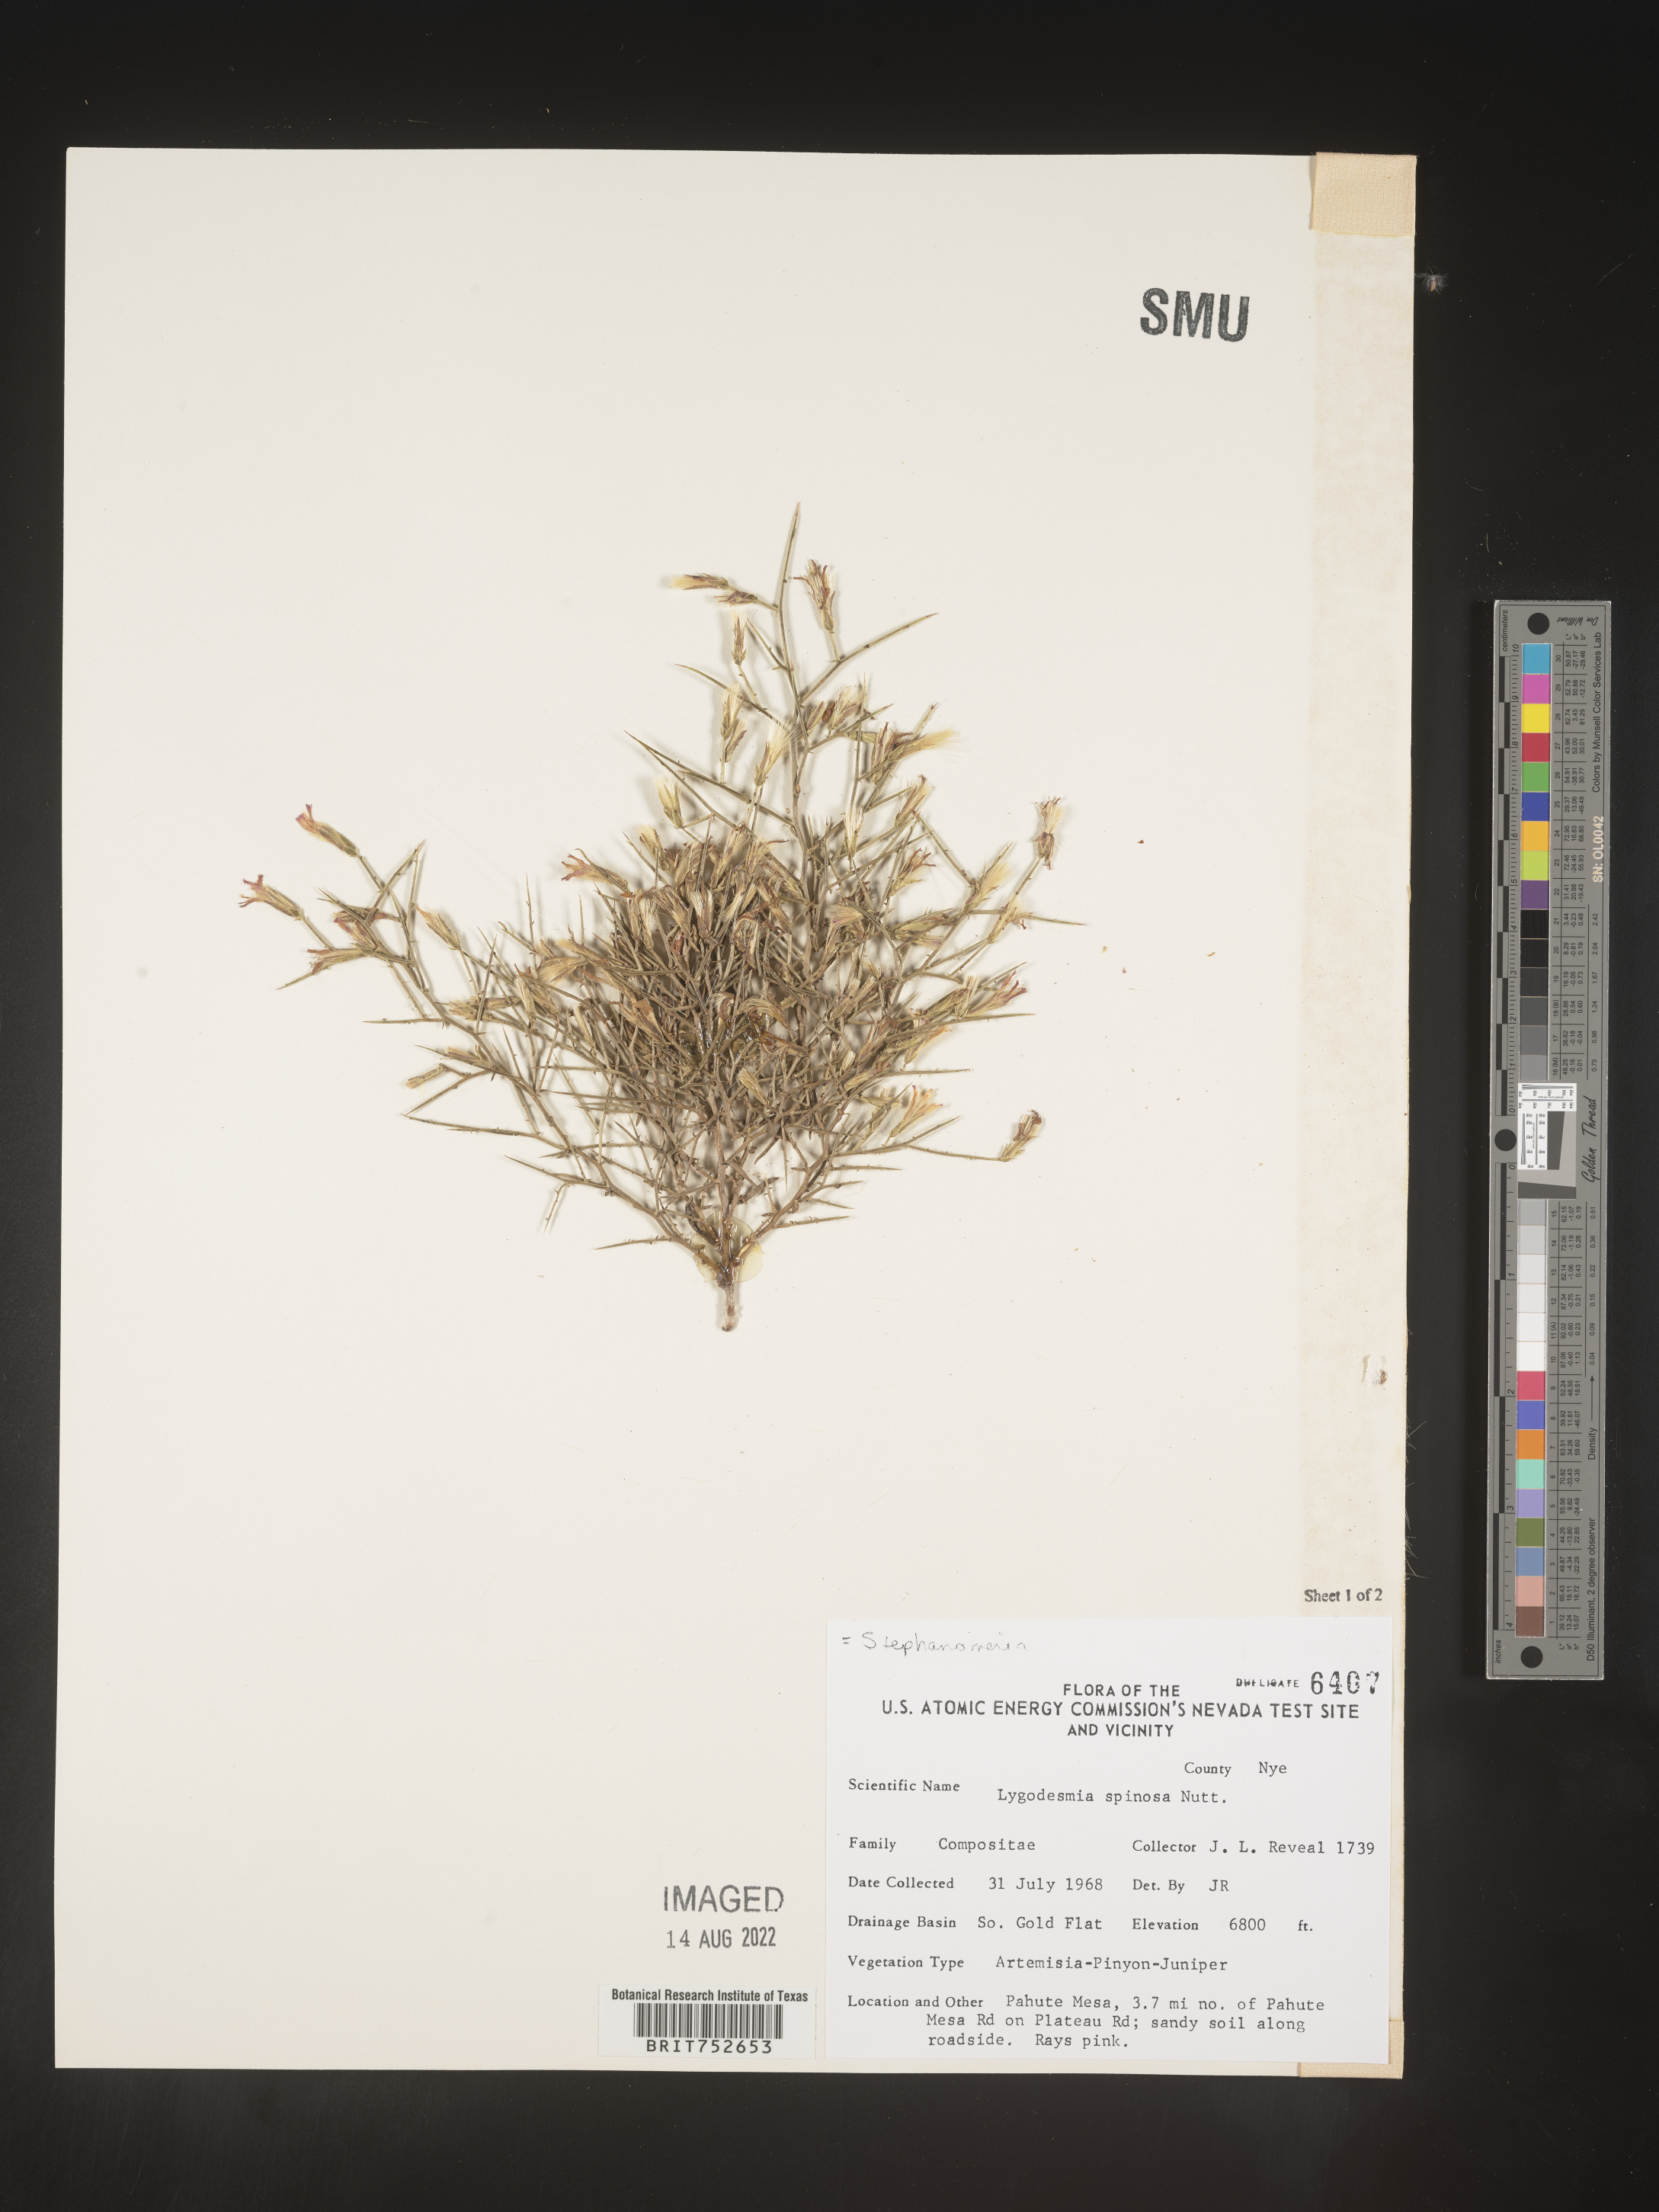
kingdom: Plantae
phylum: Tracheophyta
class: Magnoliopsida
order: Asterales
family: Asteraceae
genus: Pleiacanthus
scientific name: Pleiacanthus spinosus
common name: Thorny skeleton-weed
